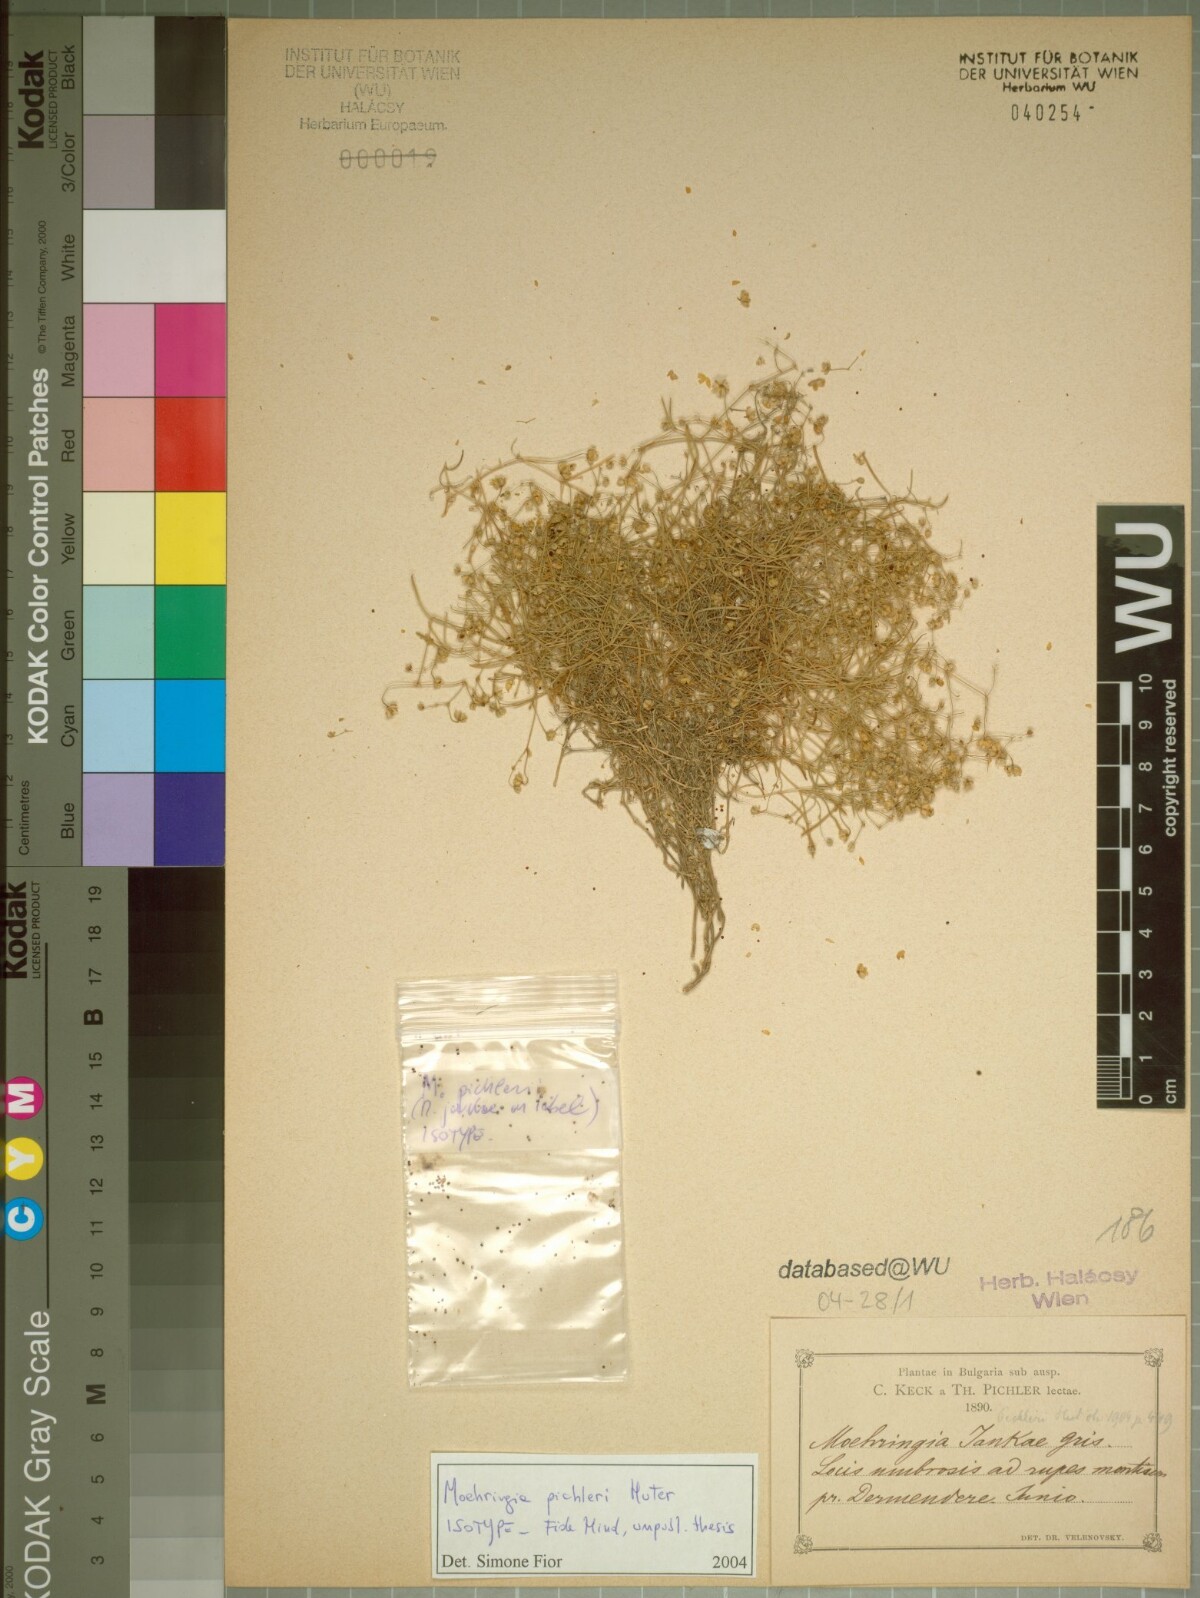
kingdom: Plantae
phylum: Tracheophyta
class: Magnoliopsida
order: Caryophyllales
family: Caryophyllaceae
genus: Moehringia
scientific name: Moehringia muscosa
